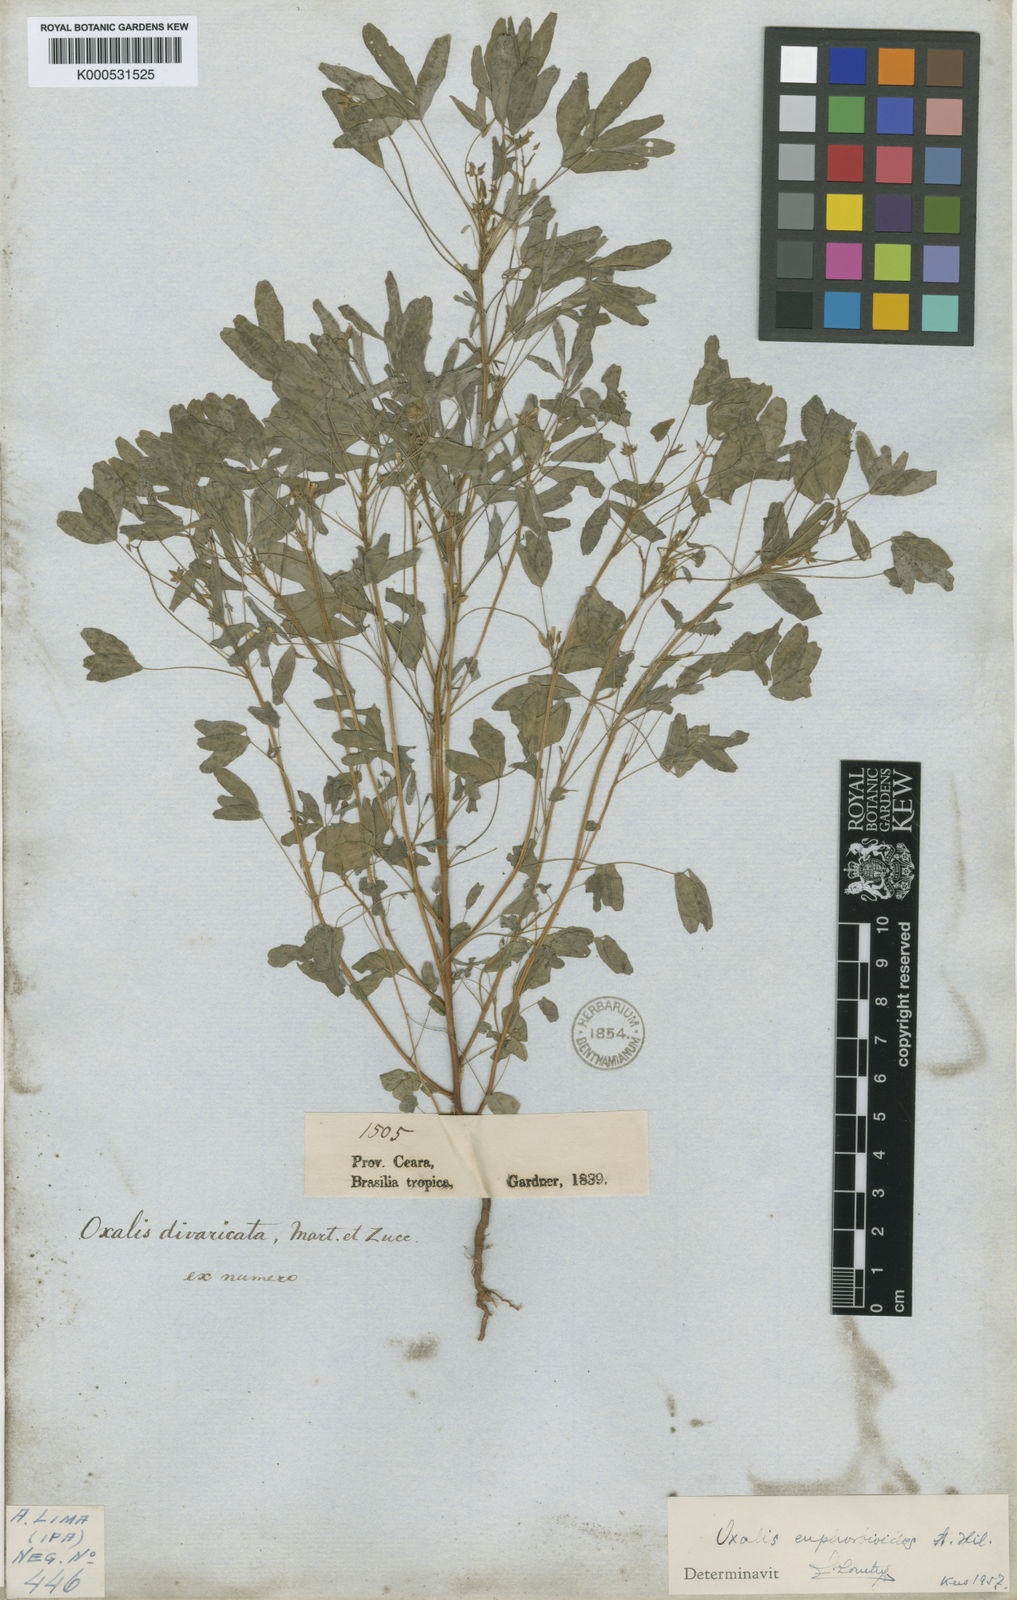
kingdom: Plantae
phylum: Tracheophyta
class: Magnoliopsida
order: Oxalidales
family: Oxalidaceae
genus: Oxalis
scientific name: Oxalis divaricata
